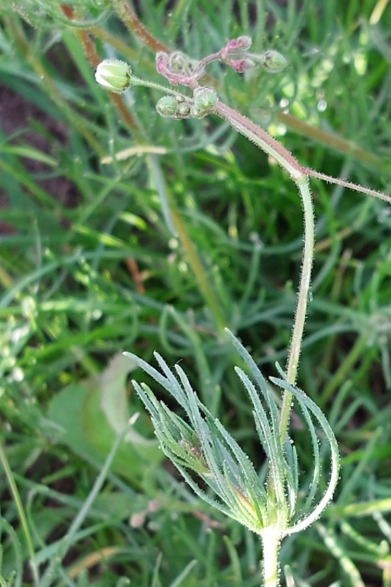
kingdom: Plantae
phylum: Tracheophyta
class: Magnoliopsida
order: Caryophyllales
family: Caryophyllaceae
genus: Spergula
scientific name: Spergula arvensis
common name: Almindelig spergel (underart)
